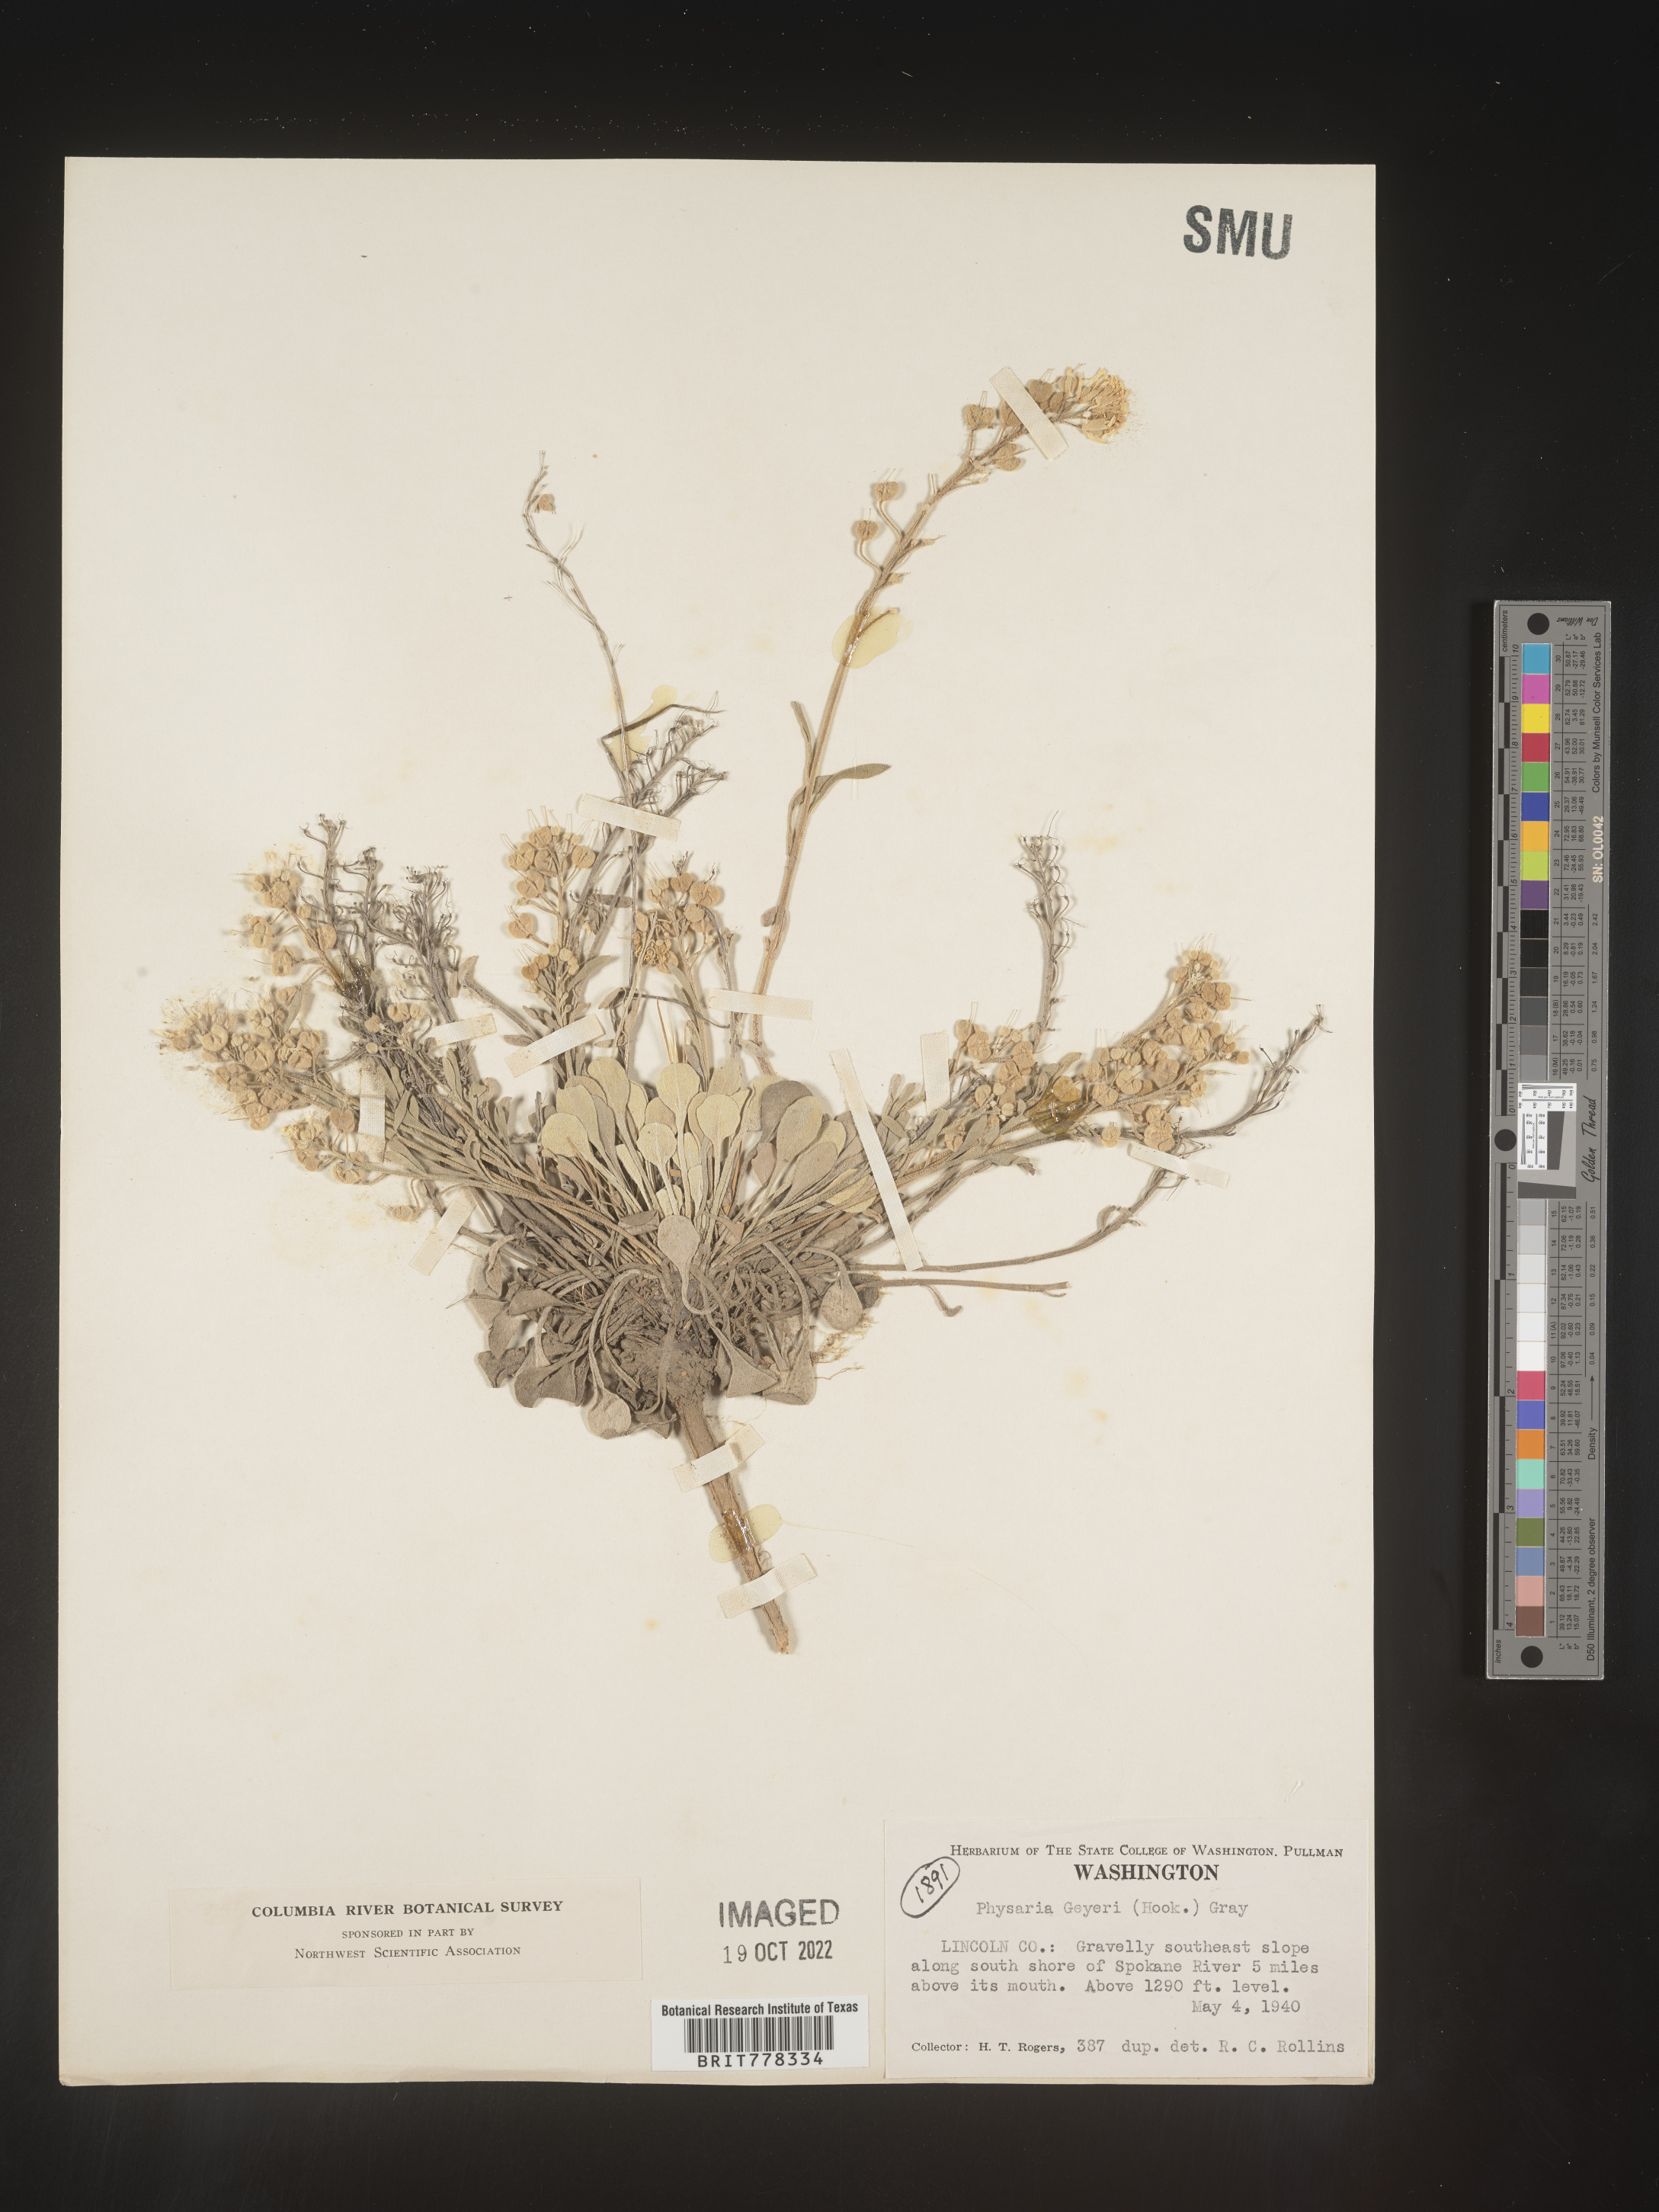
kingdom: Plantae
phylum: Tracheophyta
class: Magnoliopsida
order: Brassicales
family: Brassicaceae
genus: Physaria
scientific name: Physaria
